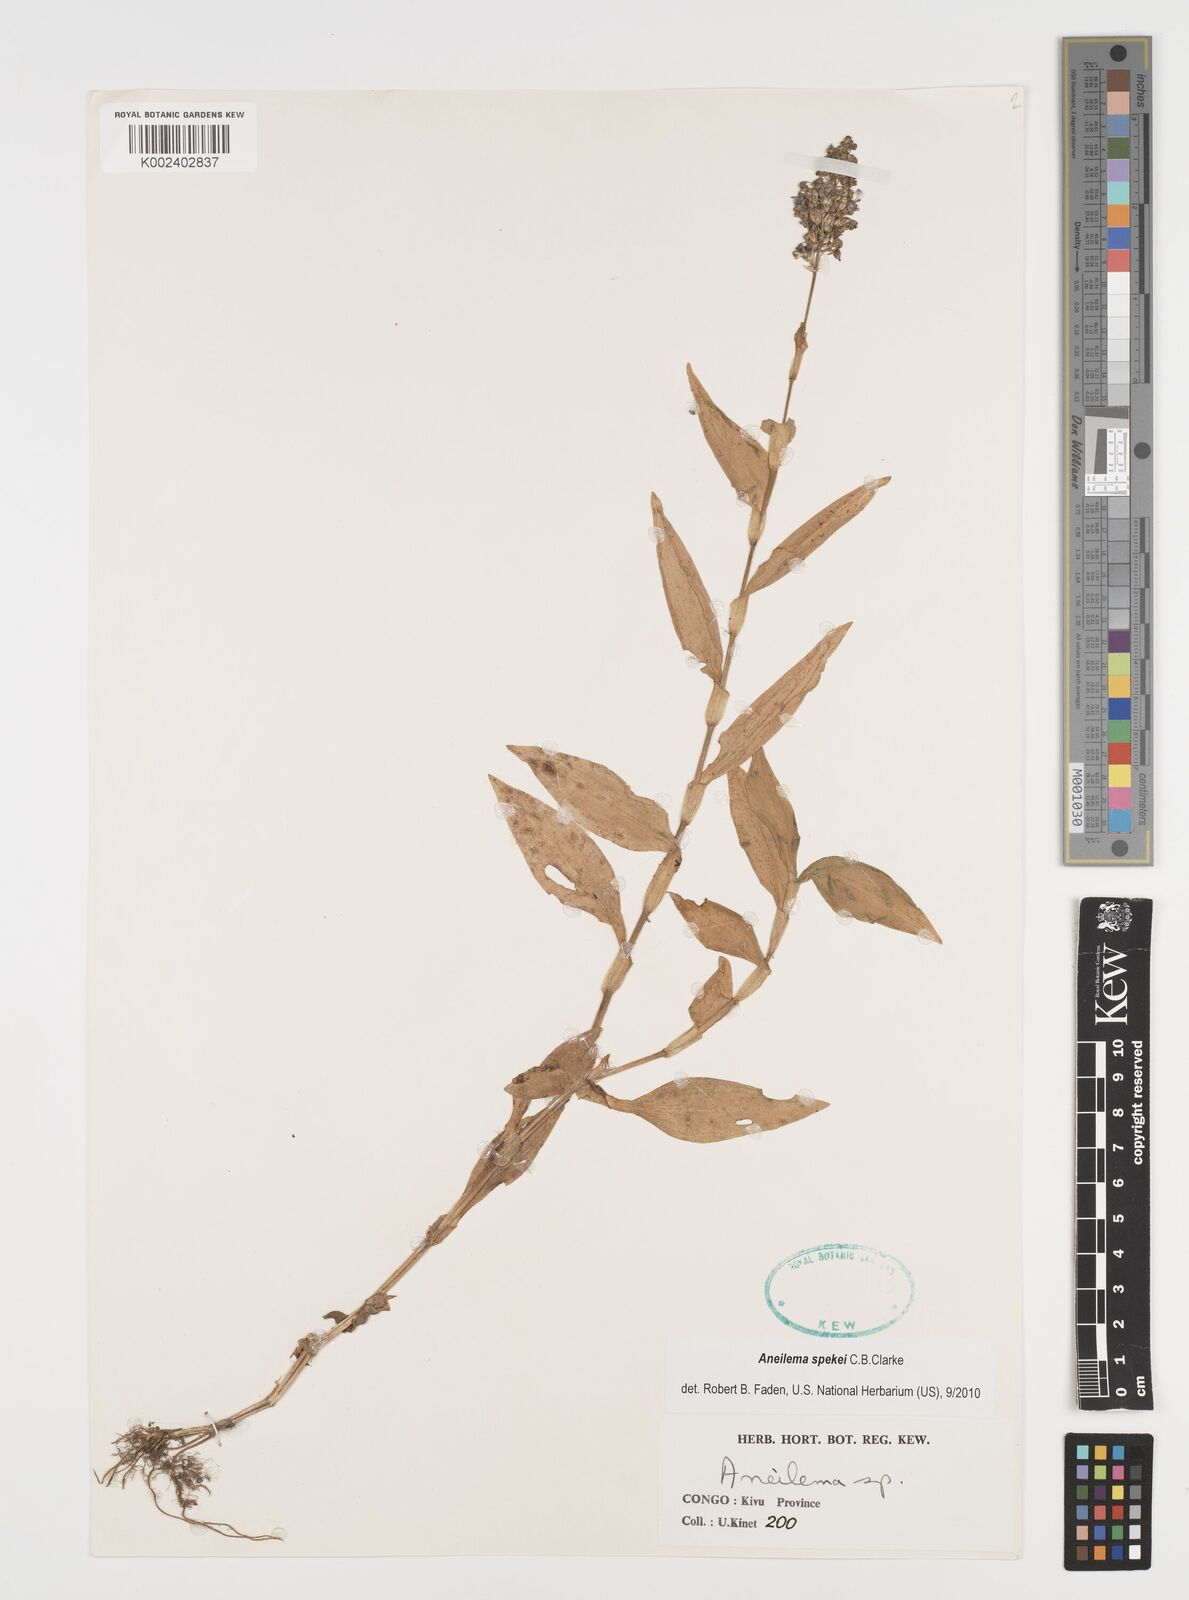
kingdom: Plantae
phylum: Tracheophyta
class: Liliopsida
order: Commelinales
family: Commelinaceae
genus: Aneilema
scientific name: Aneilema spekei
